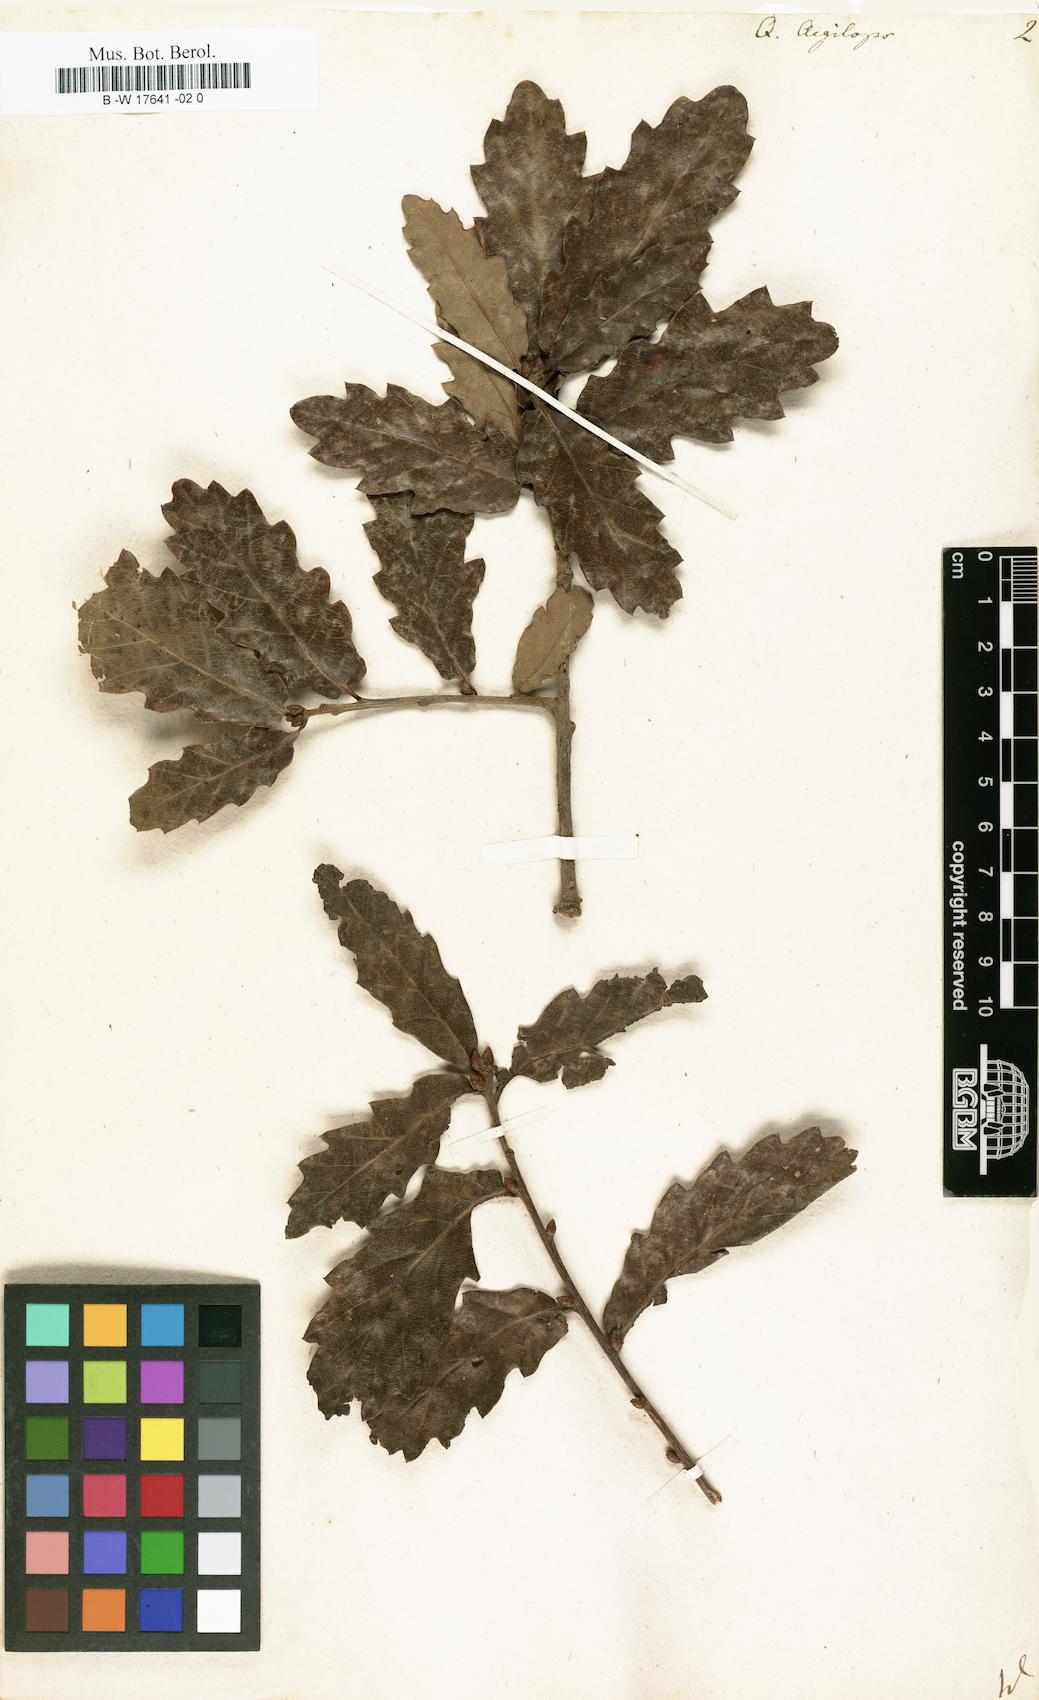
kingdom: Plantae
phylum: Tracheophyta
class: Magnoliopsida
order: Fagales
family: Fagaceae
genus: Quercus
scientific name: Quercus
